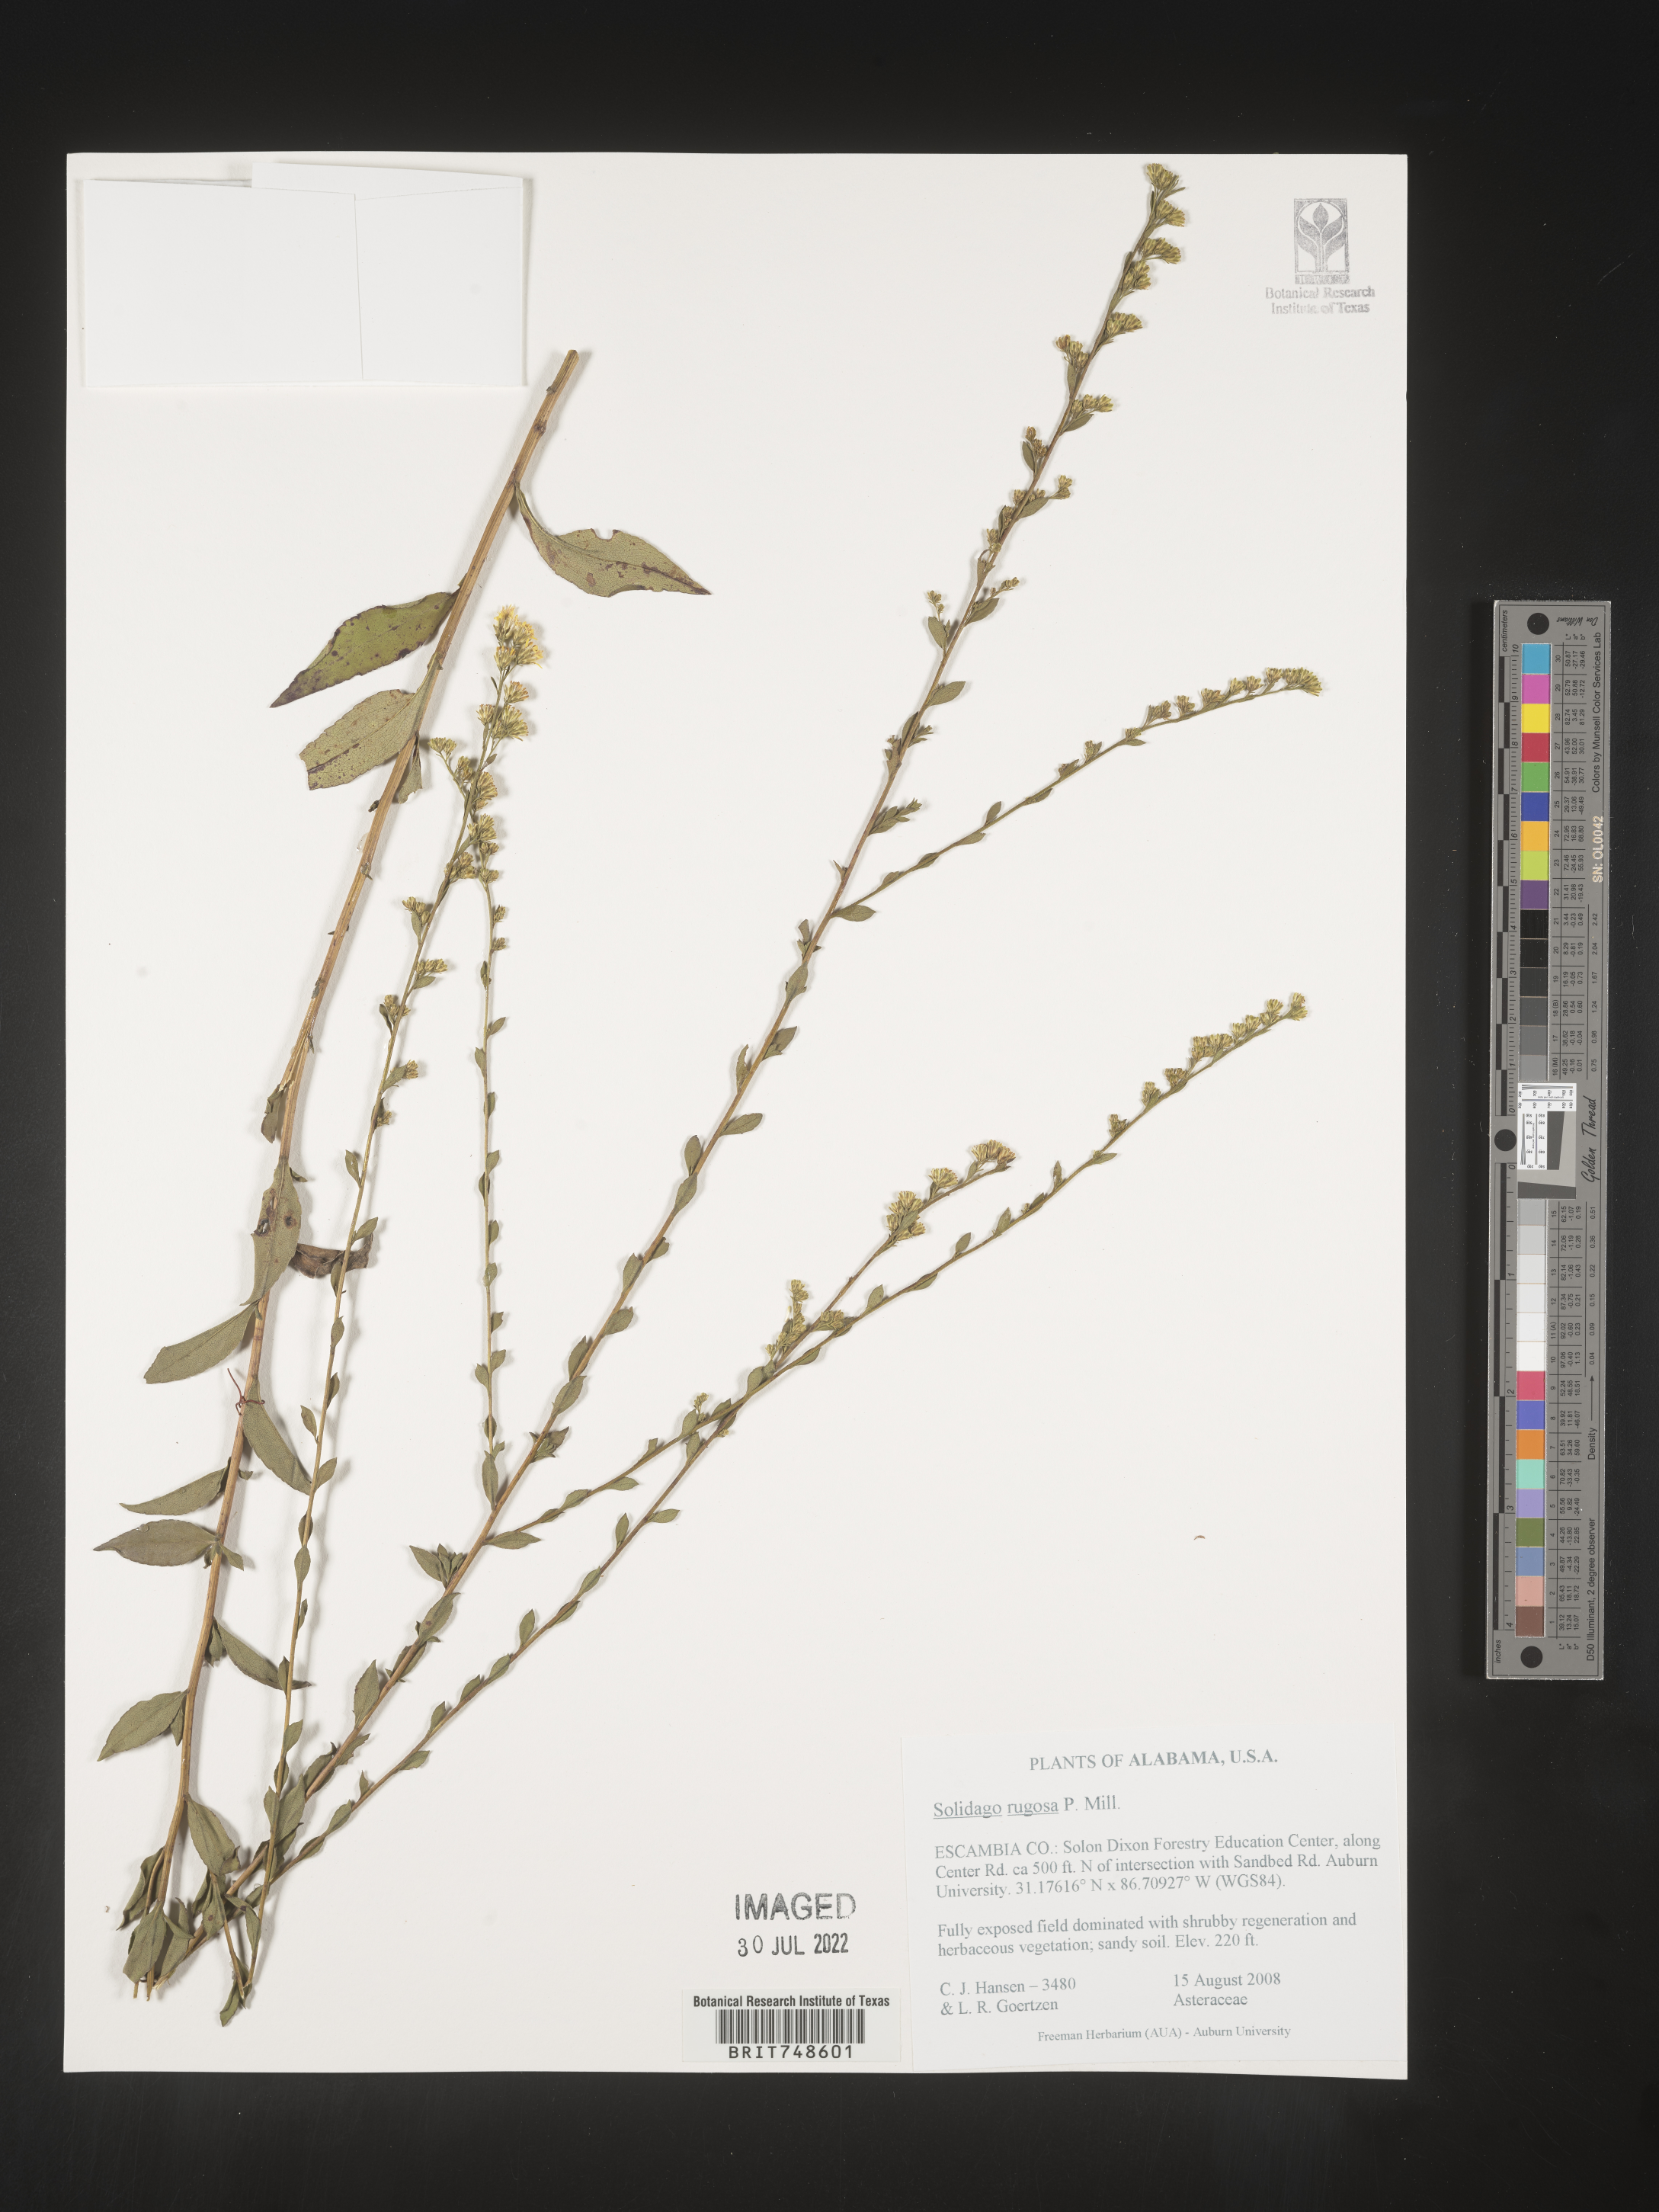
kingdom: Plantae
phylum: Tracheophyta
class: Magnoliopsida
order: Asterales
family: Asteraceae
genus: Solidago
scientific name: Solidago rugosa
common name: Rough-stemmed goldenrod
